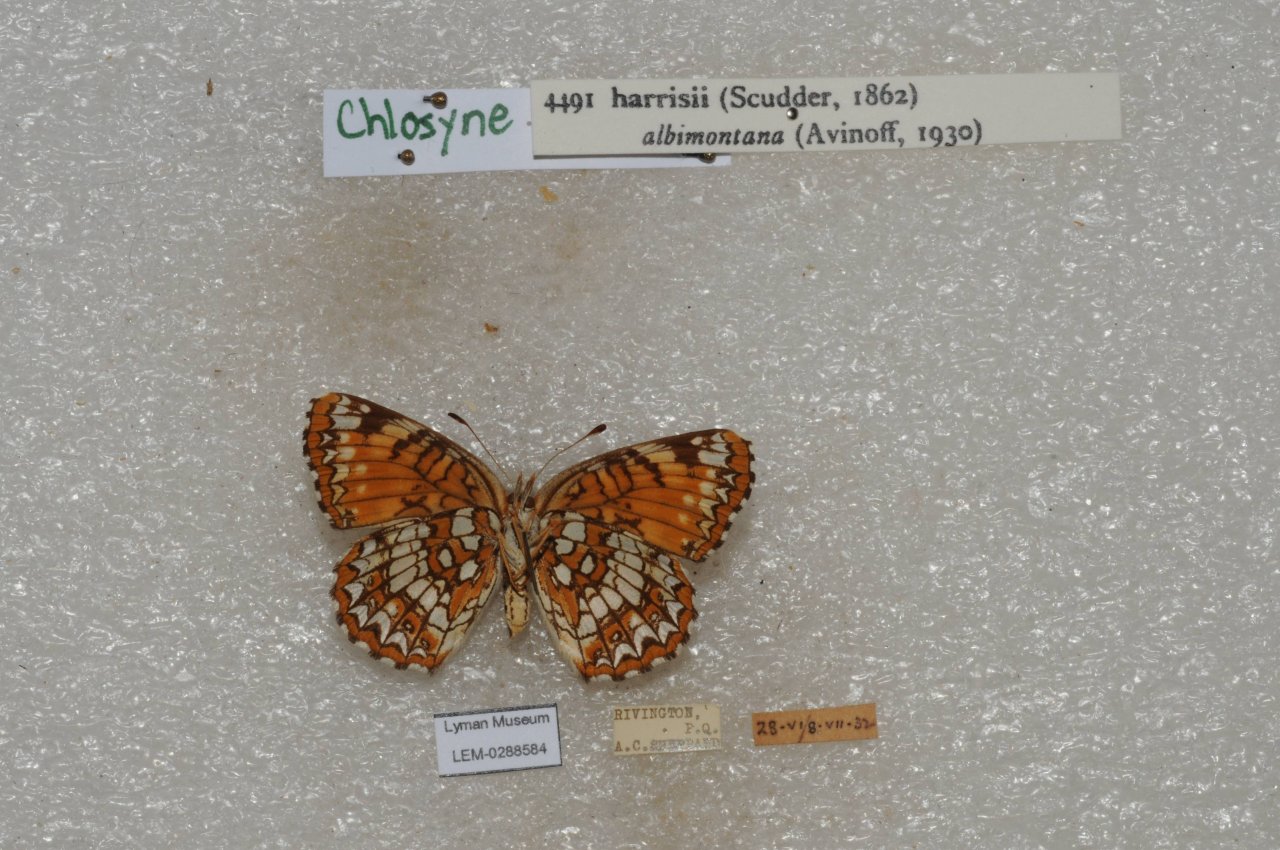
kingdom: Animalia
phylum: Arthropoda
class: Insecta
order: Lepidoptera
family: Nymphalidae
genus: Chlosyne
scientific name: Chlosyne harrisii
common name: Harris's Checkerspot
